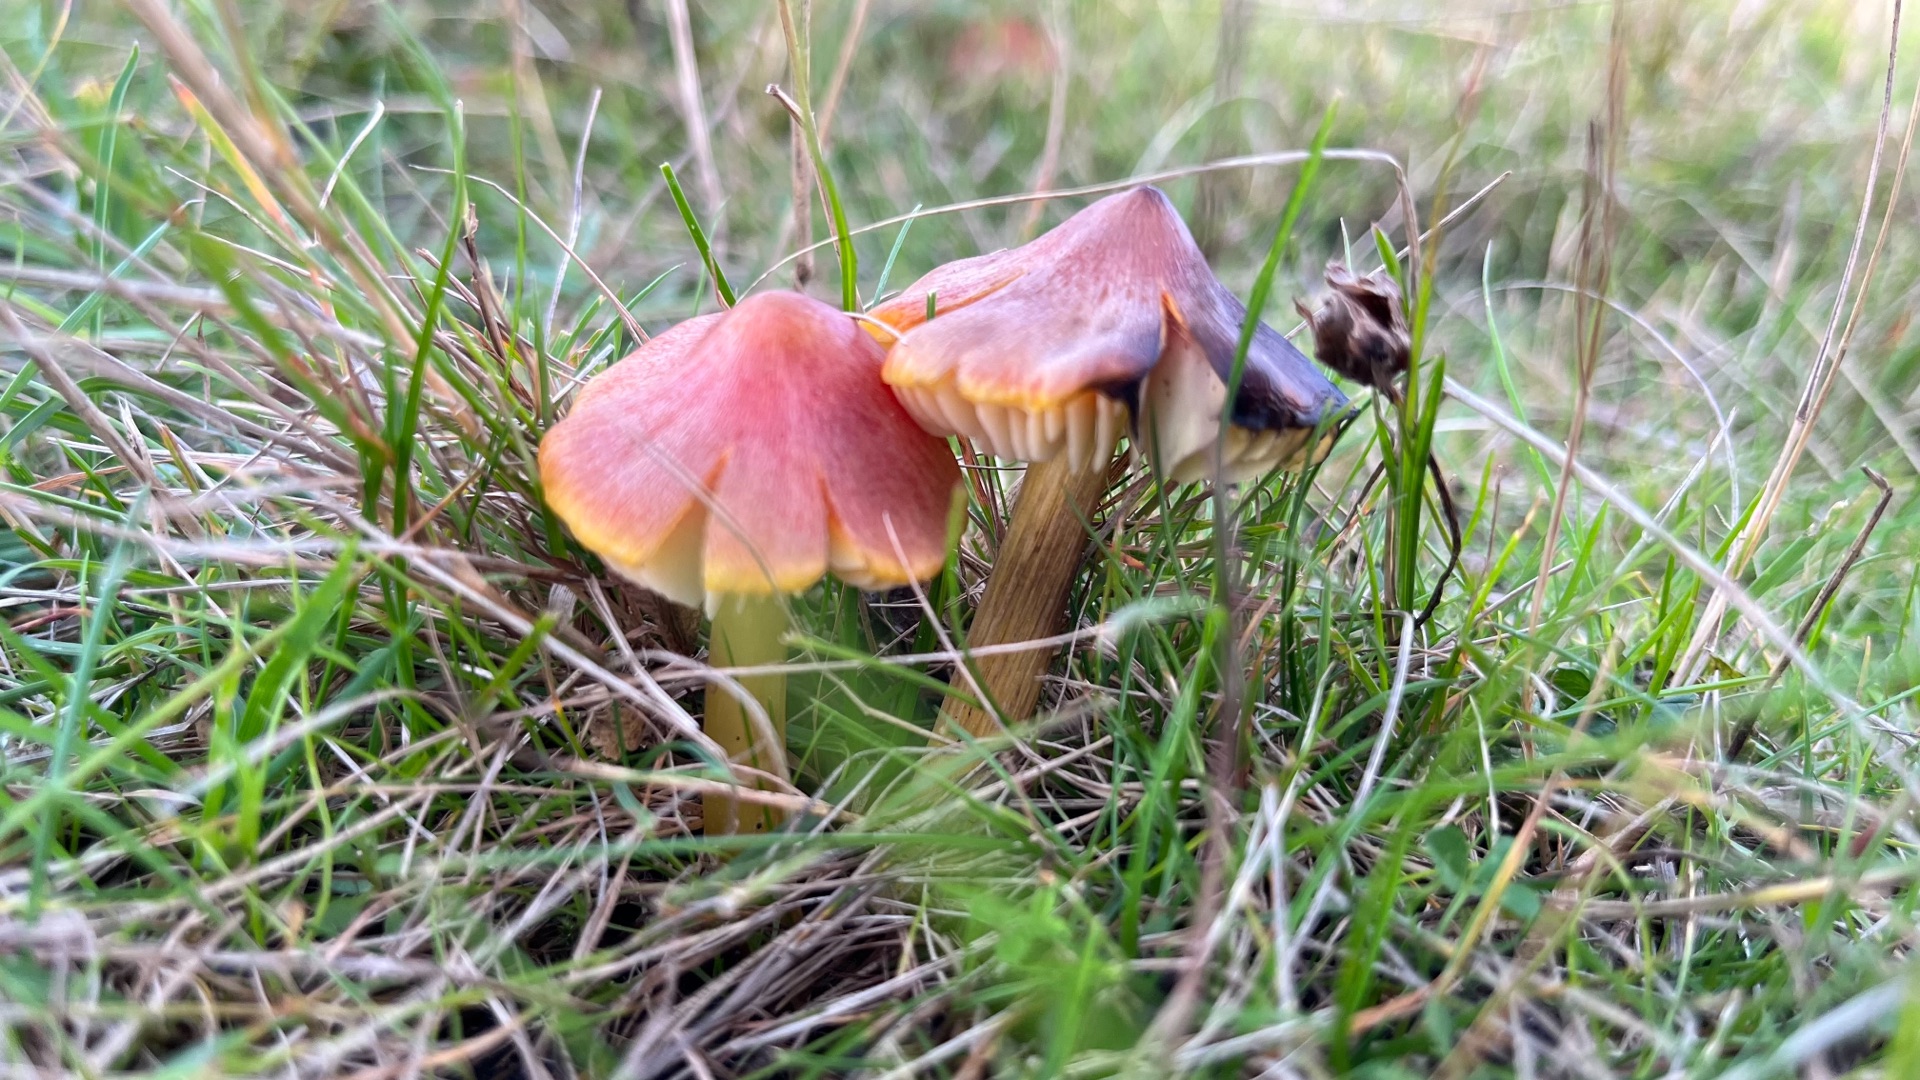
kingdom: Fungi
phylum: Basidiomycota
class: Agaricomycetes
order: Agaricales
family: Hygrophoraceae
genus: Hygrocybe
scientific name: Hygrocybe conica
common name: Kegle-vokshat
